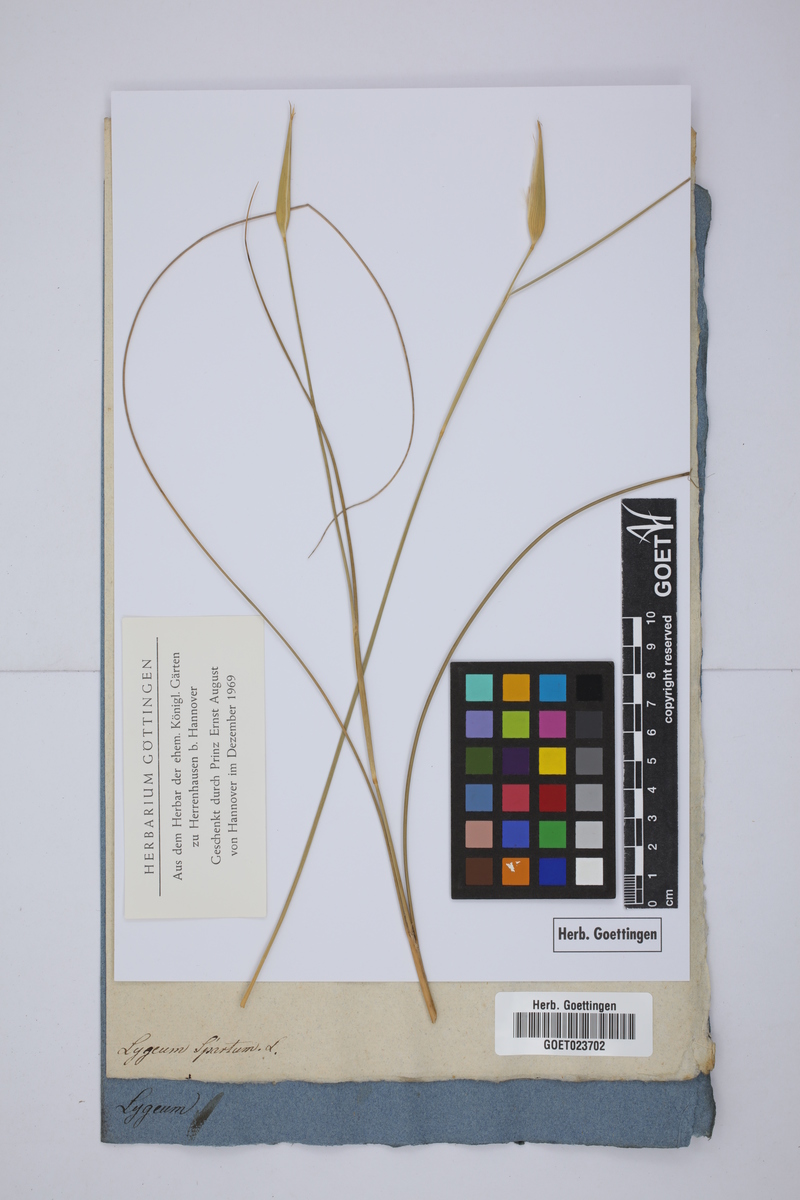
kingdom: Plantae
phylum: Tracheophyta
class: Liliopsida
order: Poales
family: Poaceae
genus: Lygeum
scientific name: Lygeum spartum
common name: Albardine
